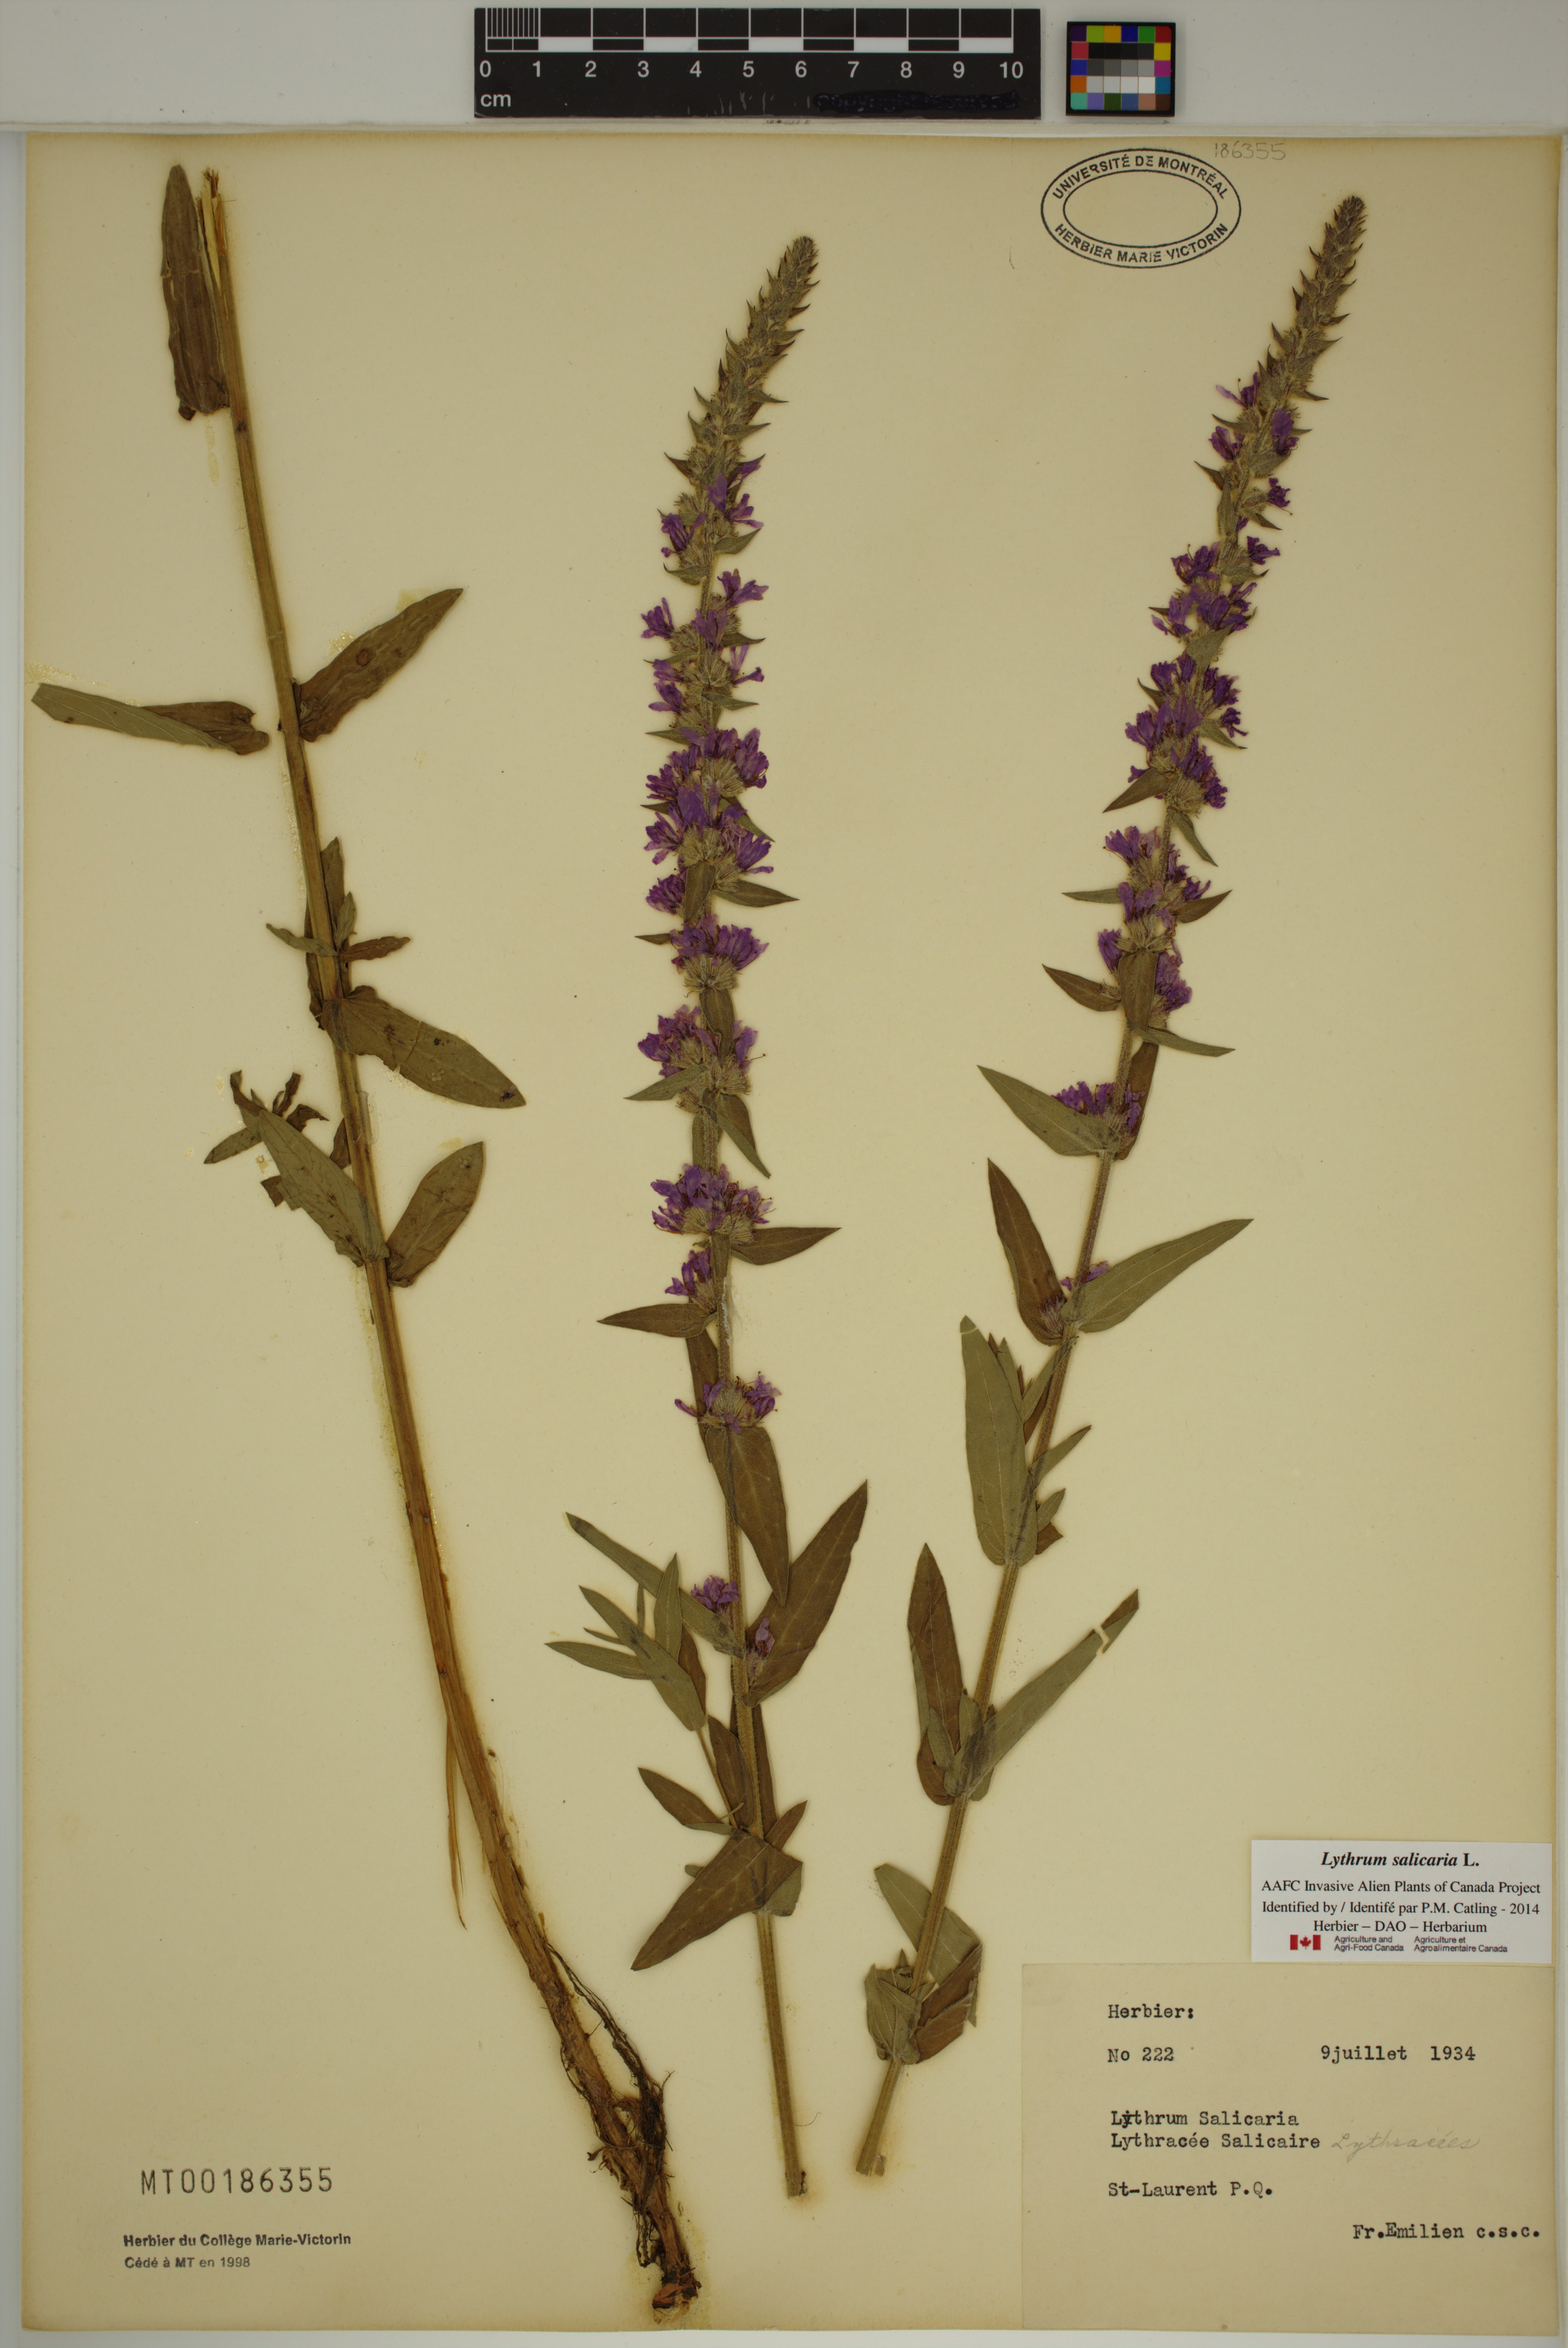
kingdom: Plantae
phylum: Tracheophyta
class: Magnoliopsida
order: Myrtales
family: Lythraceae
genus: Lythrum
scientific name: Lythrum salicaria
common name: Purple loosestrife
